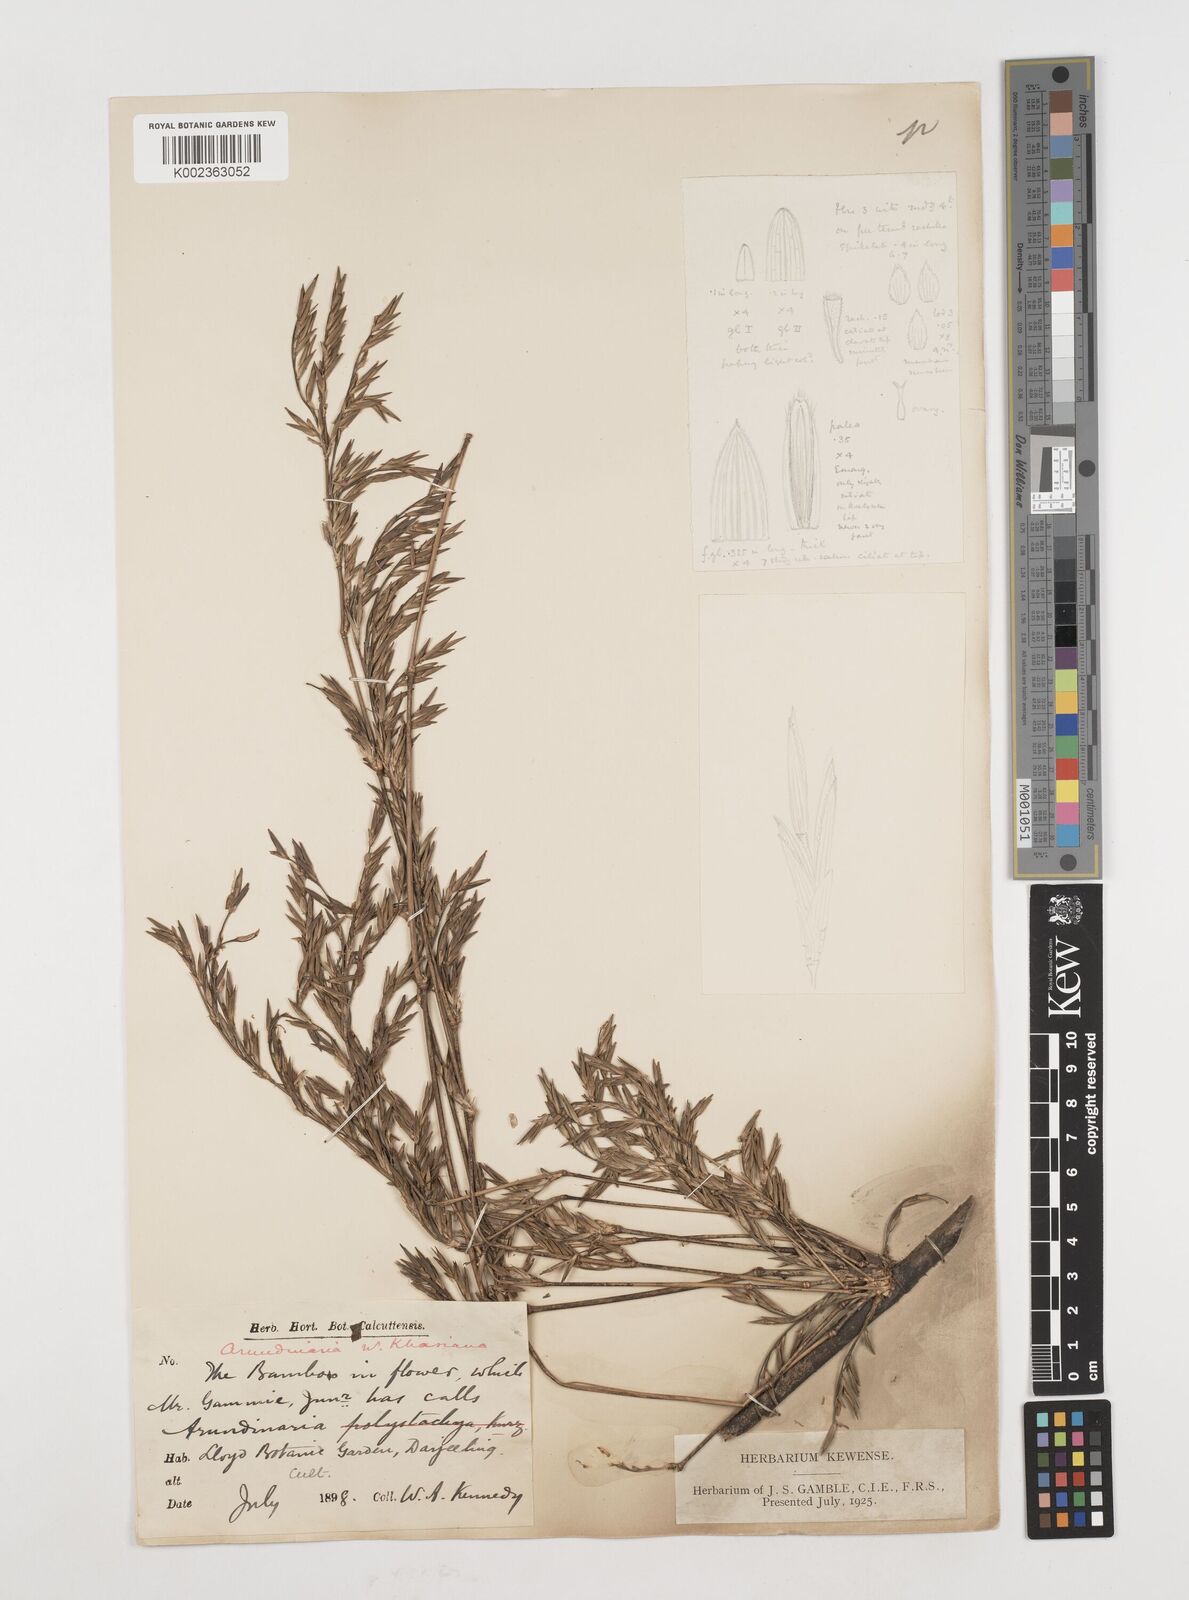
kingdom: Plantae
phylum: Tracheophyta
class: Liliopsida
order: Poales
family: Poaceae
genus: Drepanostachyum
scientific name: Drepanostachyum khasianum
